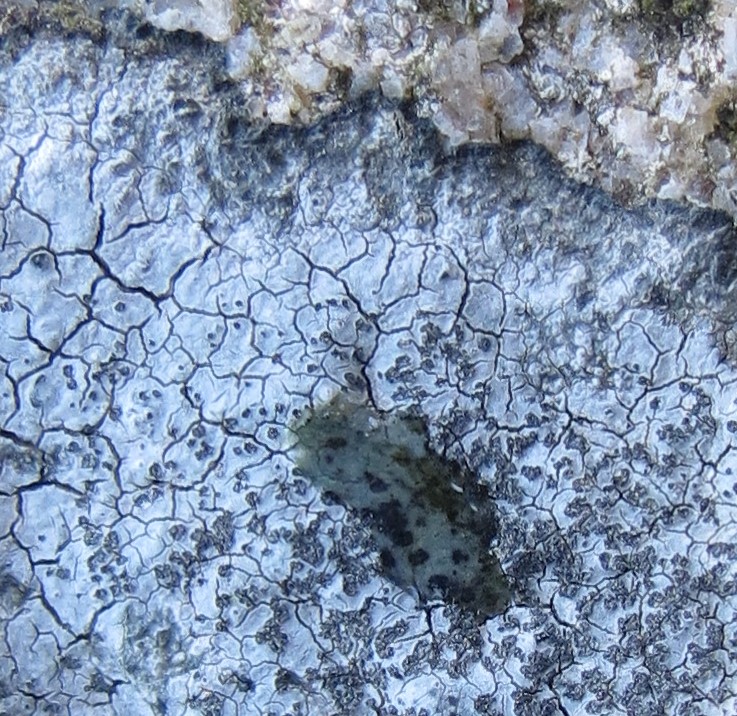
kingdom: Fungi
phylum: Ascomycota
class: Lecanoromycetes
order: Lecideales
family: Lecideaceae
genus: Porpidia
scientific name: Porpidia tuberculosa
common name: broget bredskivelav
